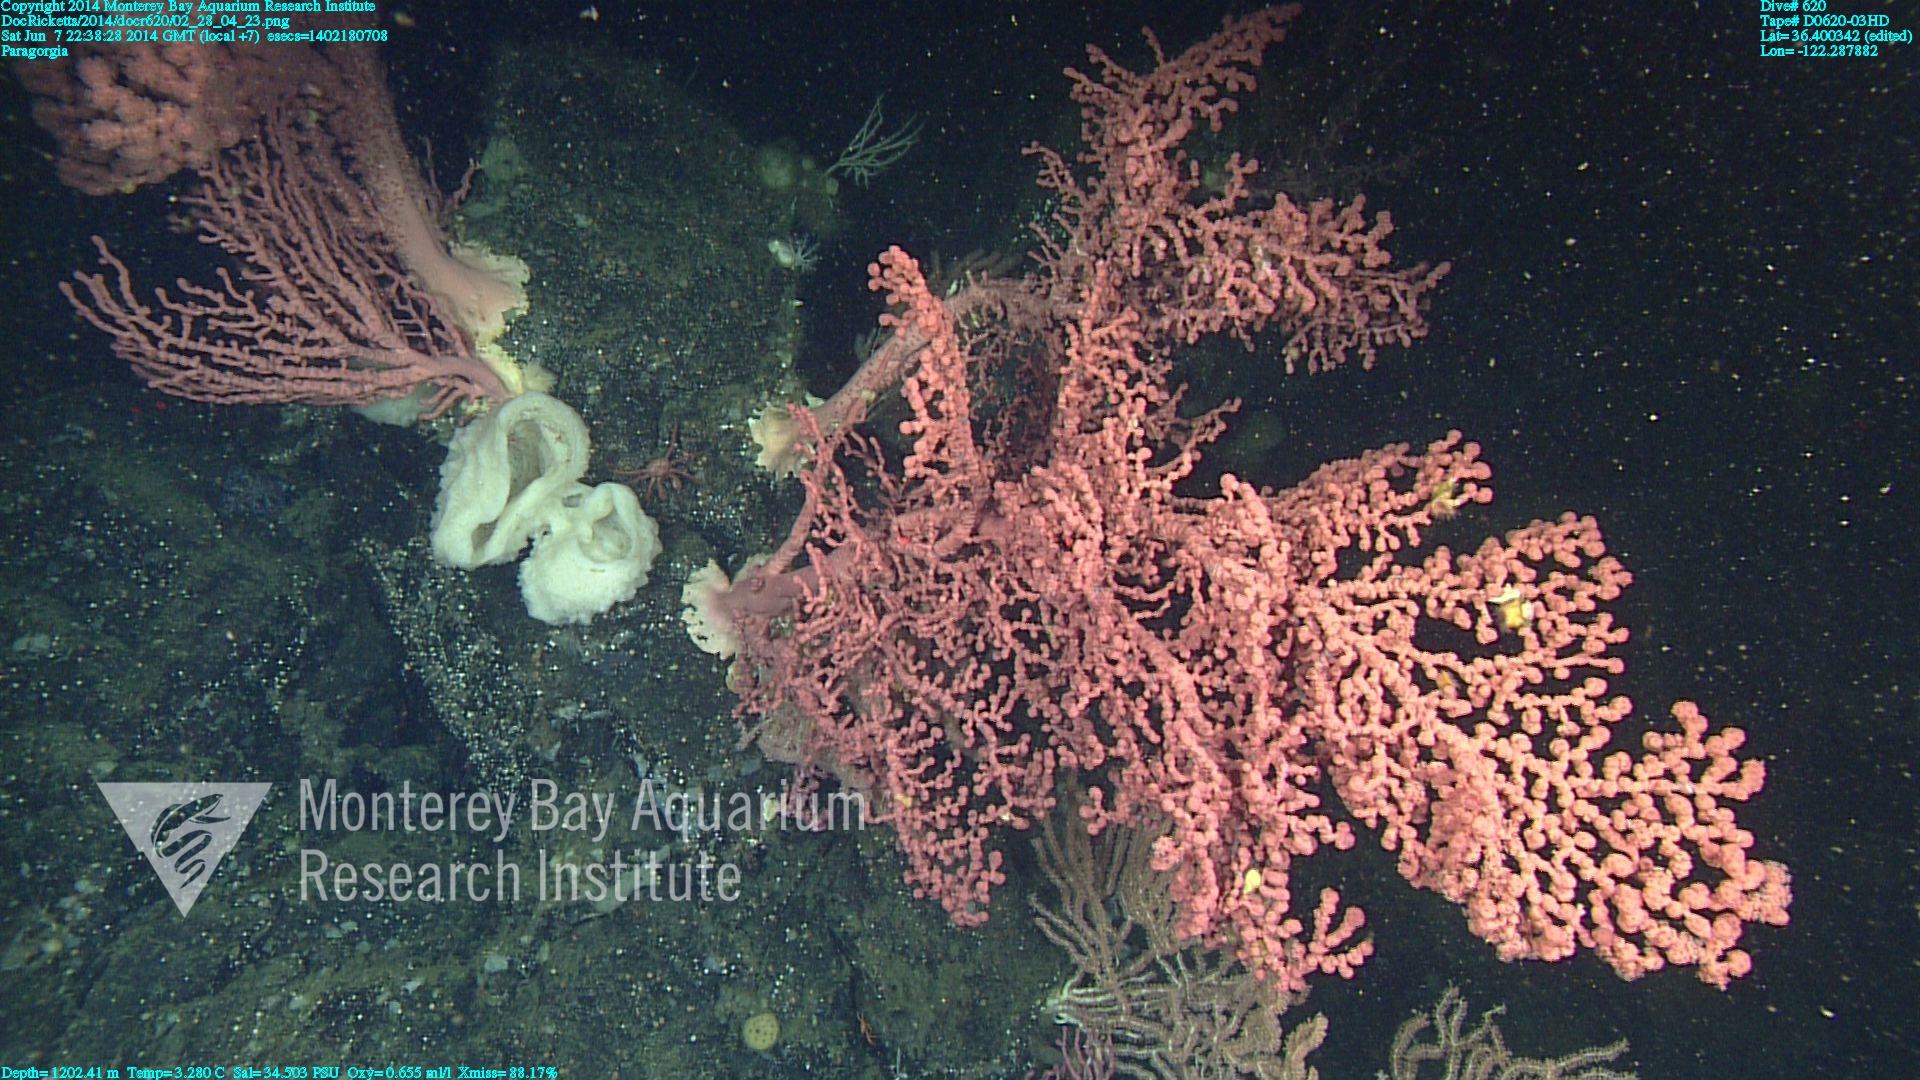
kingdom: Animalia
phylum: Cnidaria
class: Anthozoa
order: Scleralcyonacea
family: Coralliidae
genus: Paragorgia
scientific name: Paragorgia arborea
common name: Bubble gum coral
